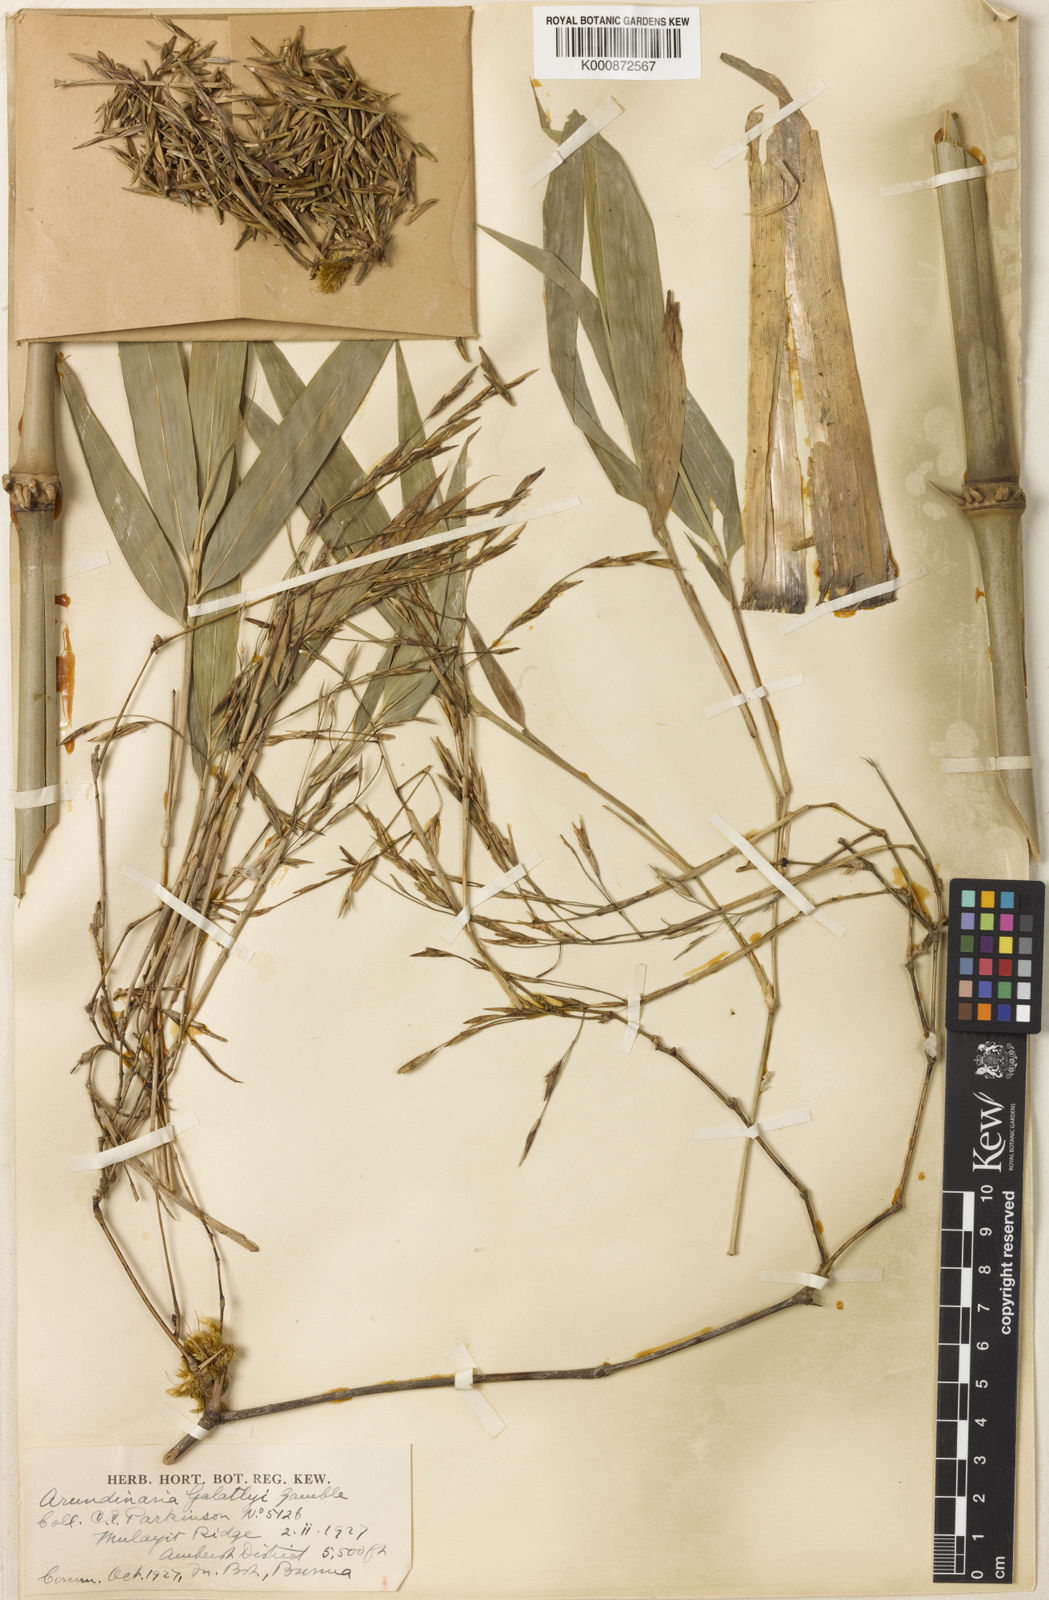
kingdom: Plantae
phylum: Tracheophyta
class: Liliopsida
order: Poales
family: Poaceae
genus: Chimonocalamus
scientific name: Chimonocalamus gallatlyi
